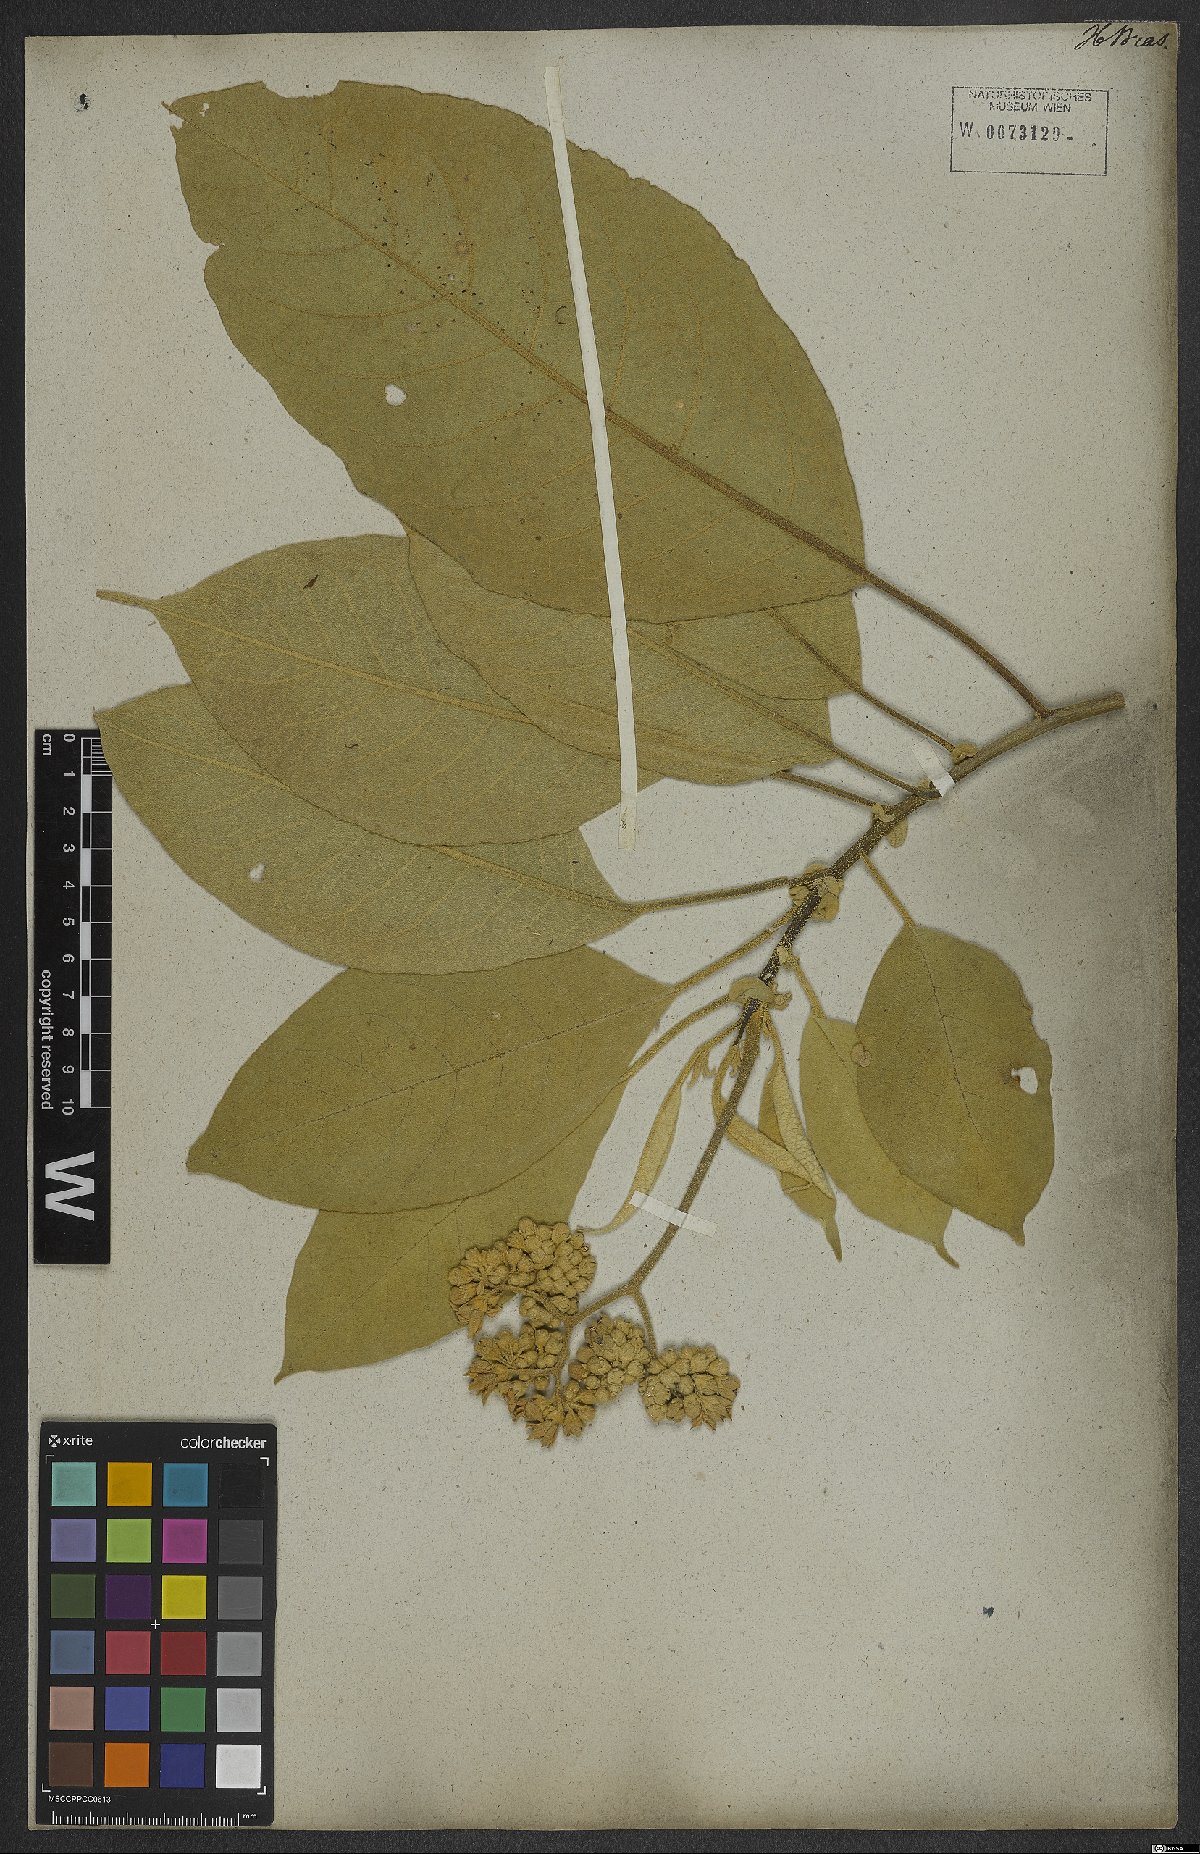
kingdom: Plantae
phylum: Tracheophyta
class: Magnoliopsida
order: Solanales
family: Solanaceae
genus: Solanum
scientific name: Solanum mauritianum
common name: Earleaf nightshade
